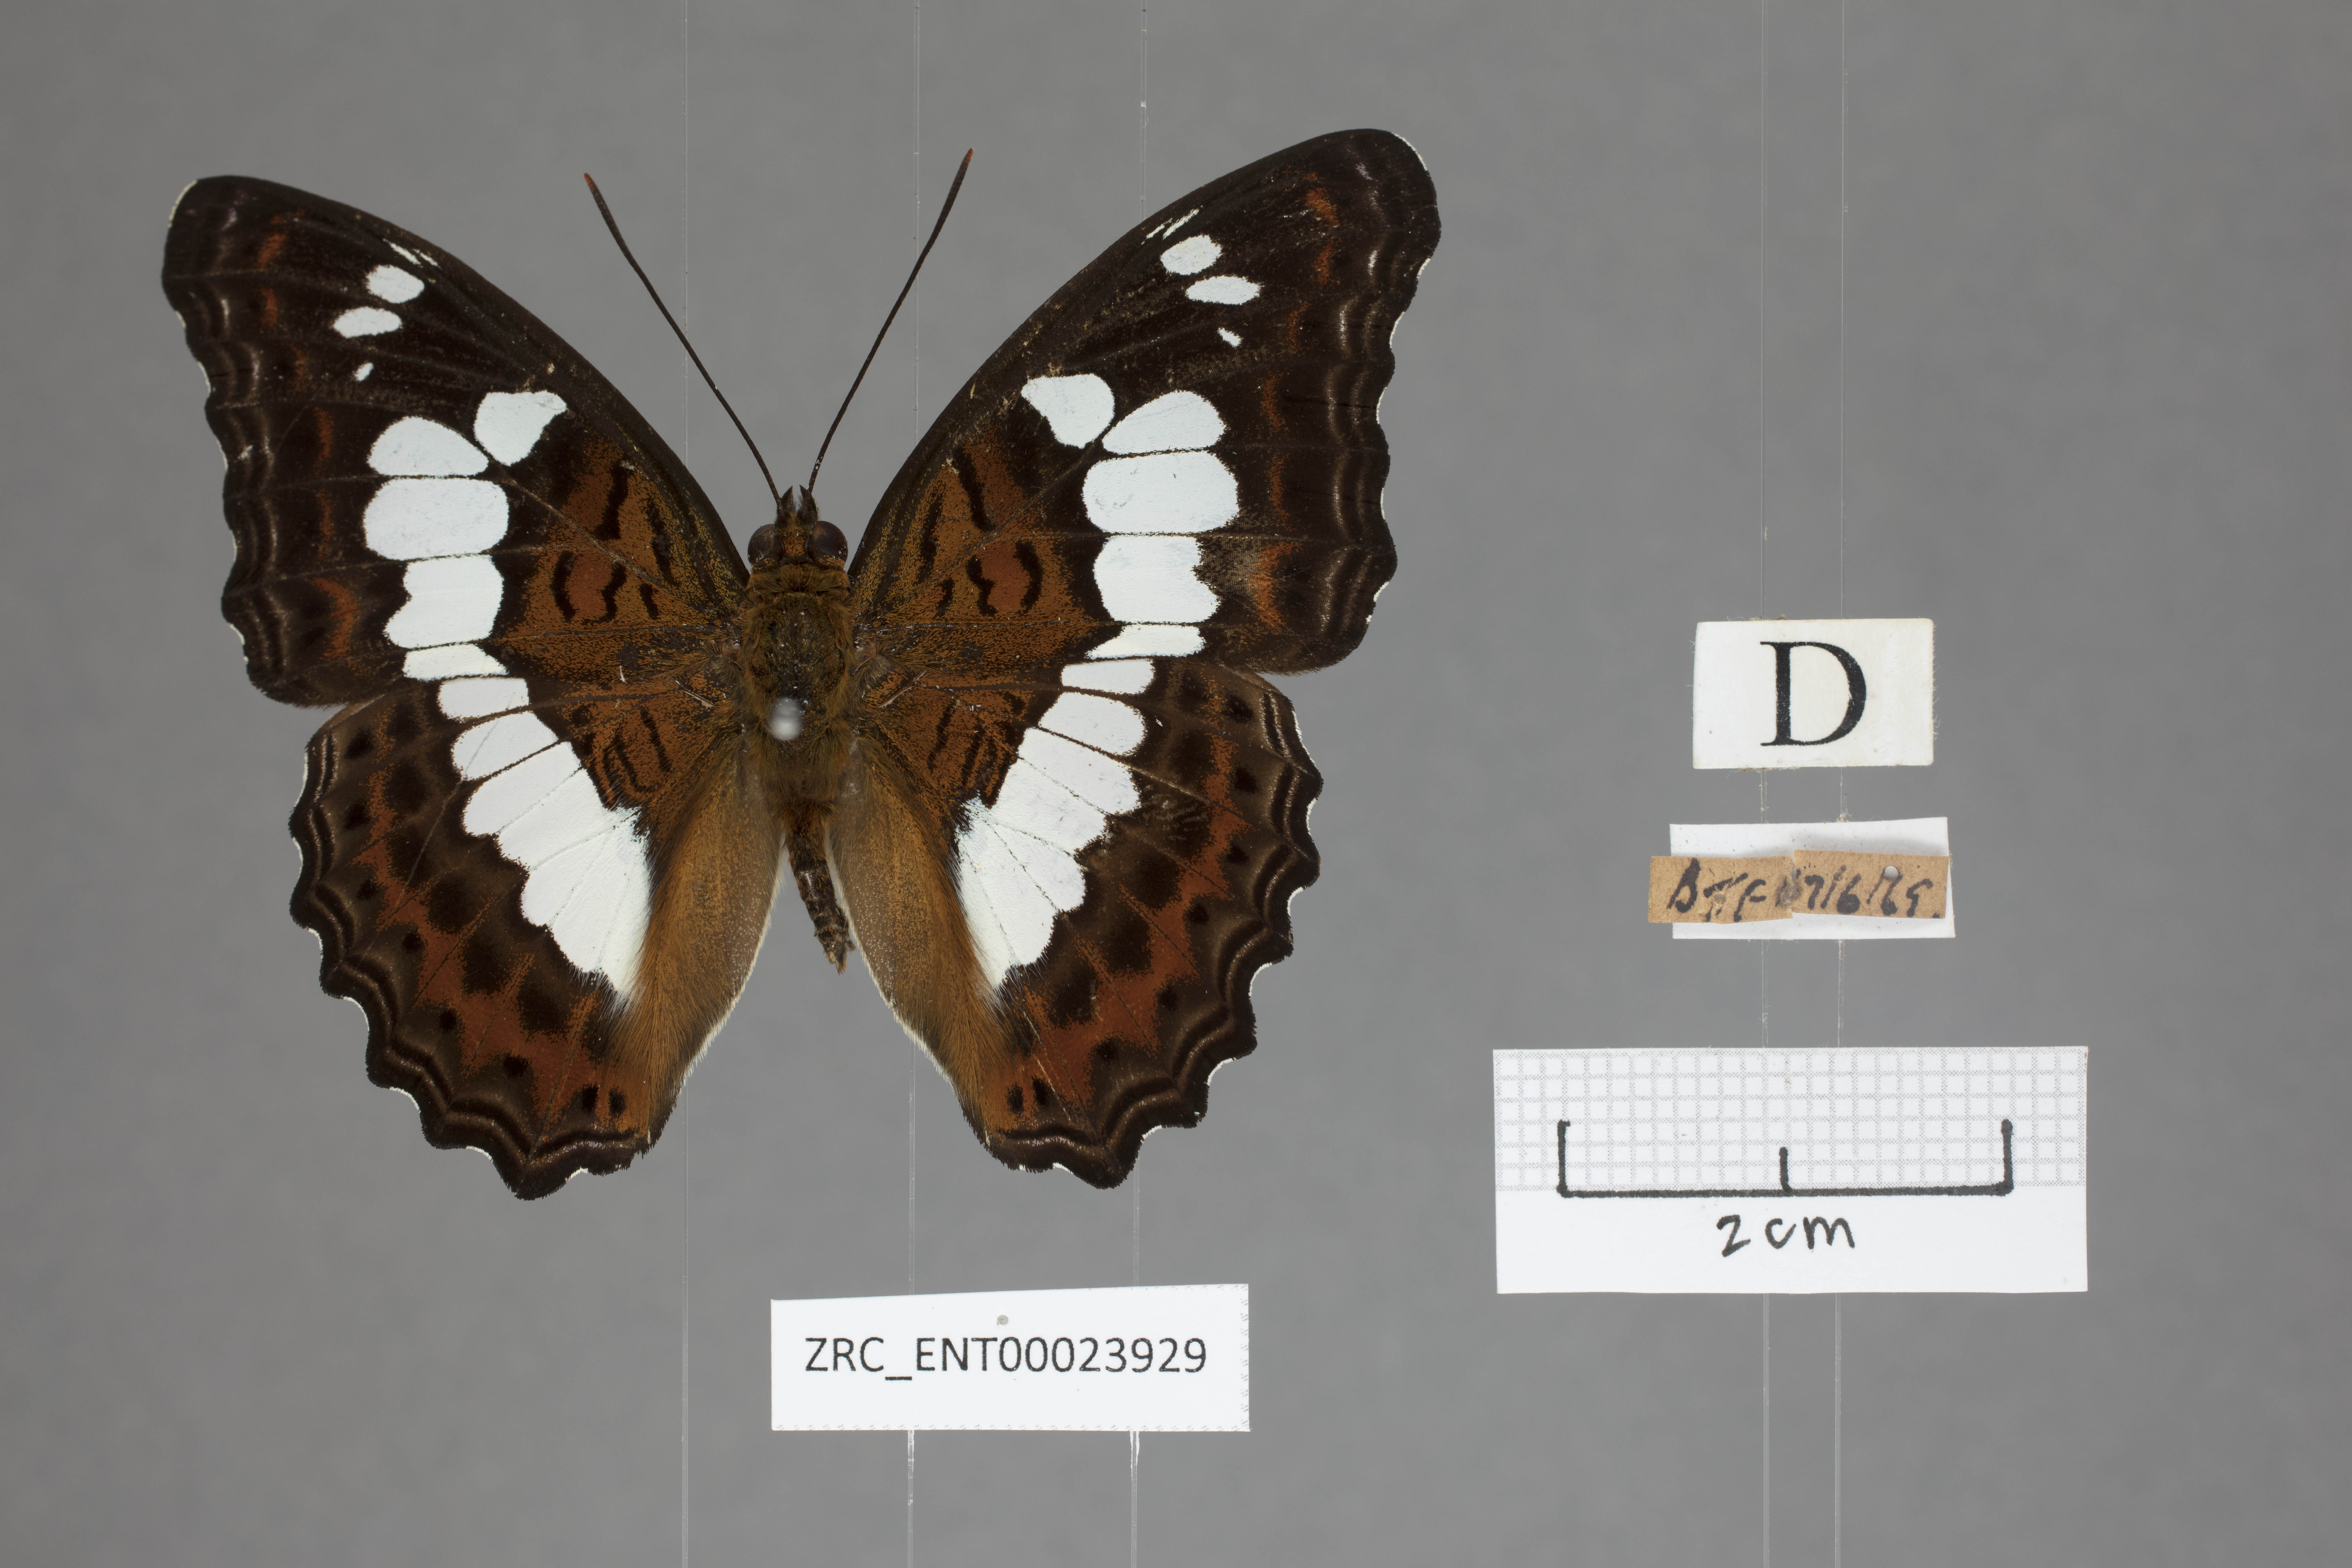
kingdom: Animalia
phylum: Arthropoda
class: Insecta
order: Lepidoptera
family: Nymphalidae
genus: Limenitis
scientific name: Limenitis Moduza procris
